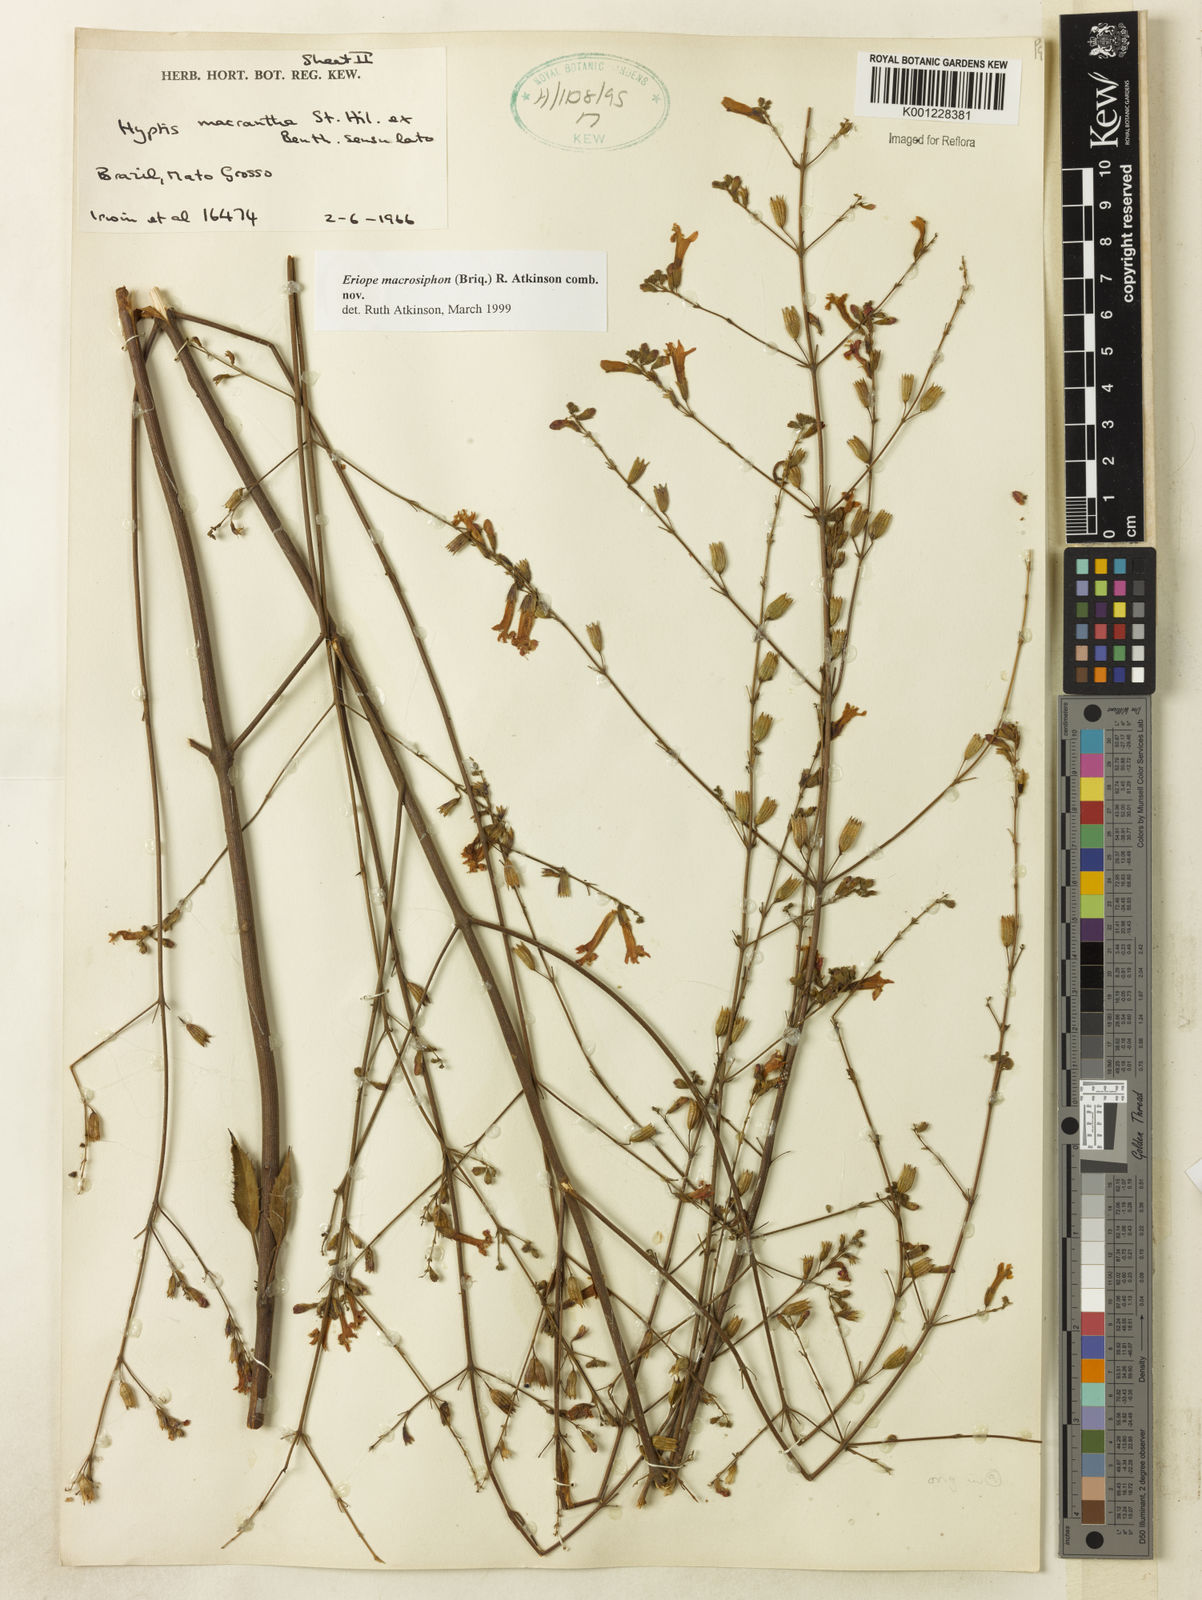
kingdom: Plantae
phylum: Tracheophyta
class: Magnoliopsida
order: Lamiales
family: Lamiaceae
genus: Hypenia
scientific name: Hypenia macrosiphon
